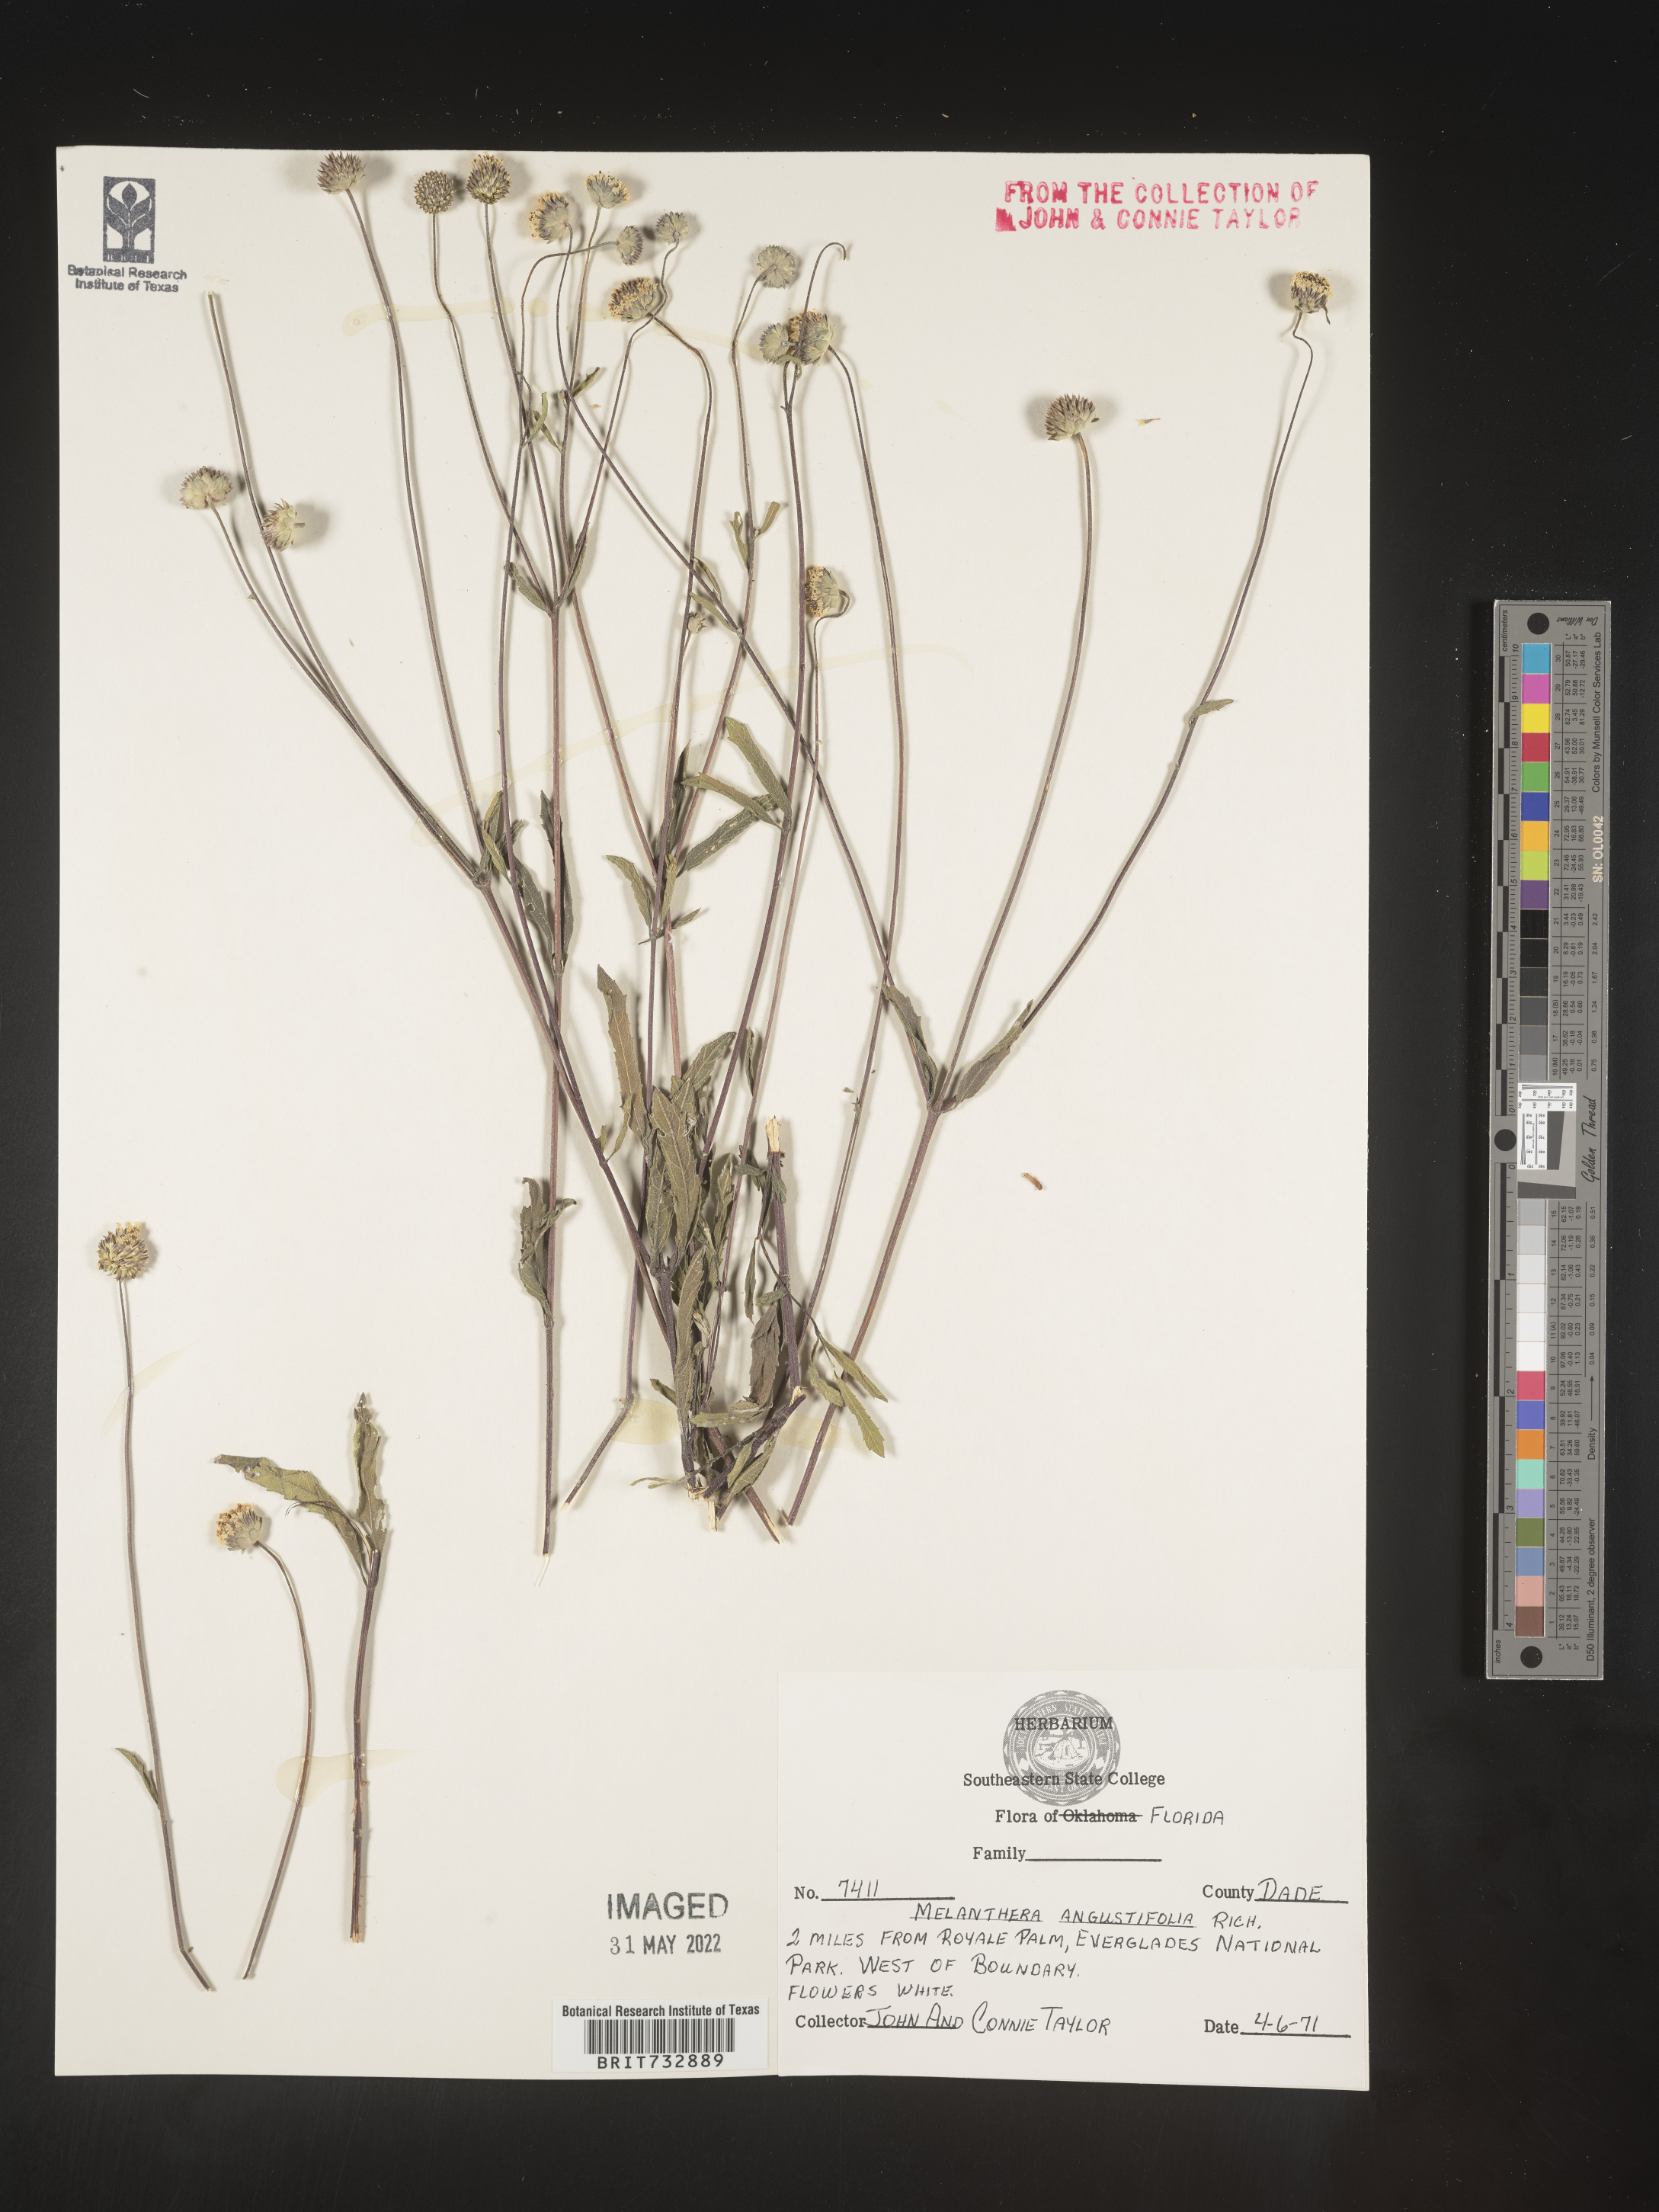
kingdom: Plantae
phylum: Tracheophyta
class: Magnoliopsida
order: Asterales
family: Asteraceae
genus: Melanthera
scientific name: Melanthera nivea
